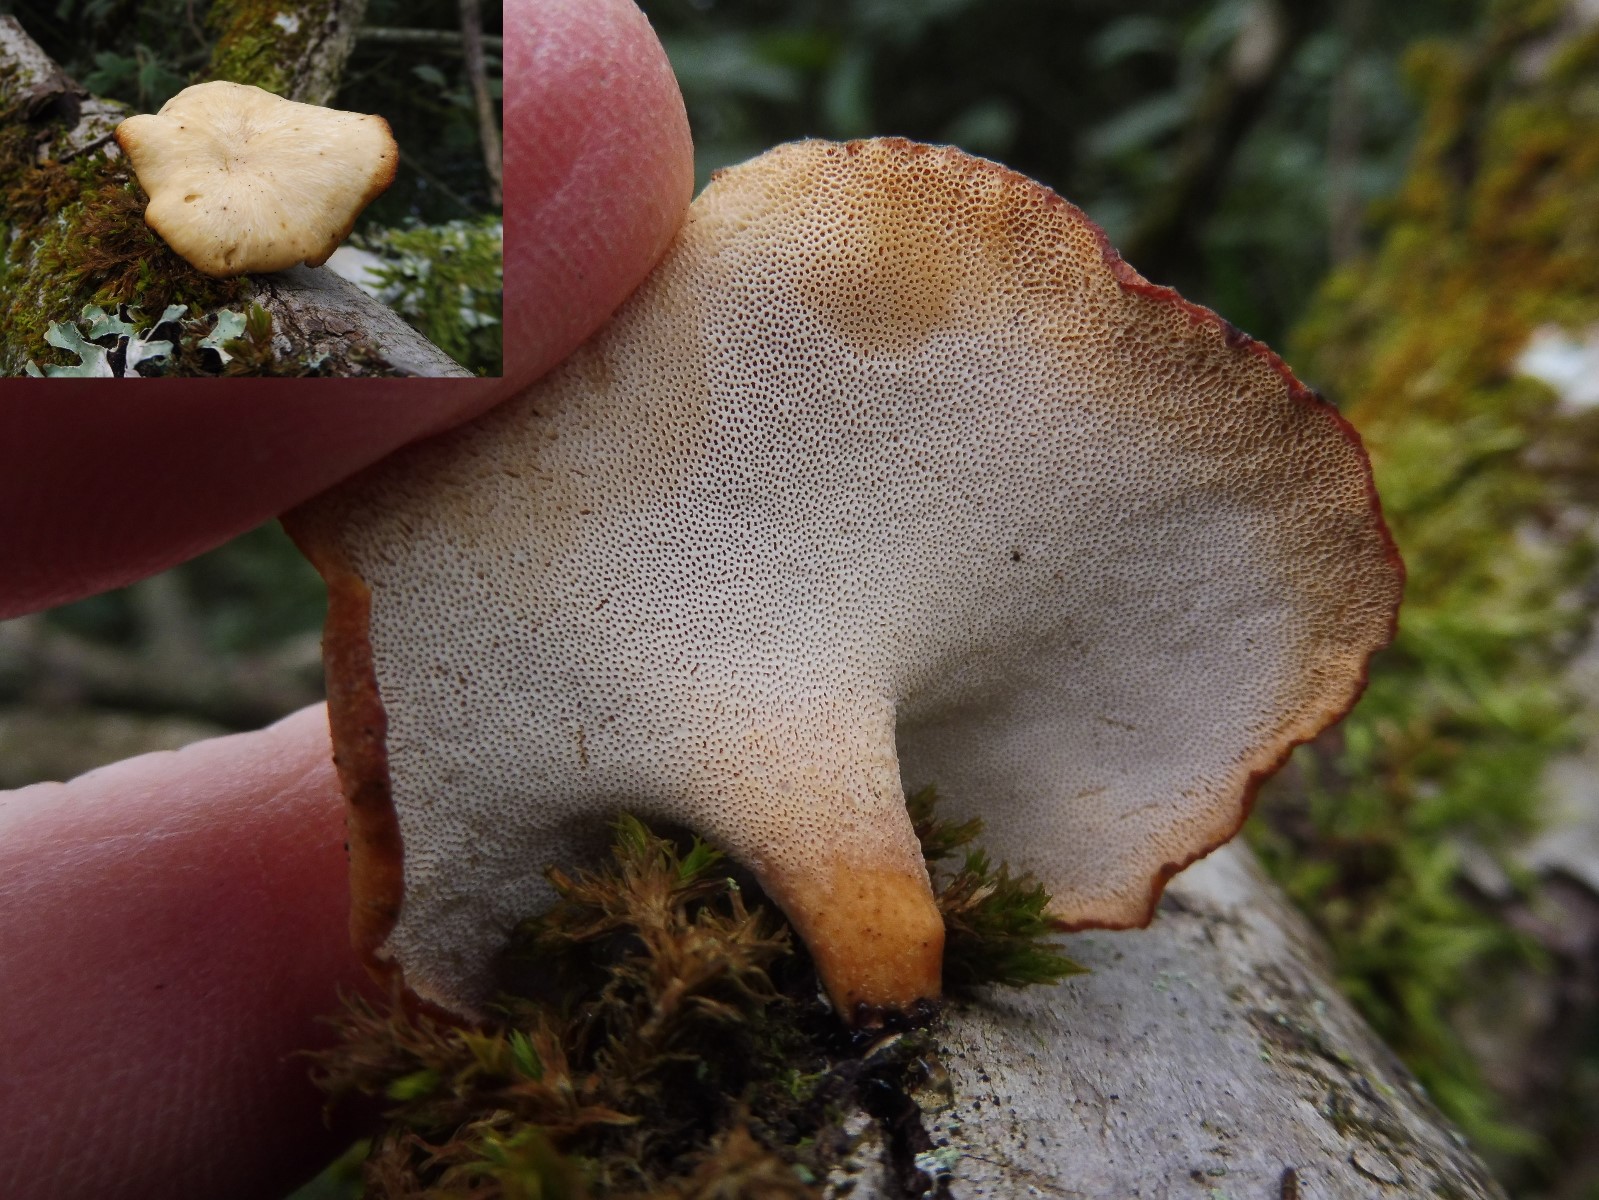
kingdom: Fungi
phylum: Basidiomycota
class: Agaricomycetes
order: Polyporales
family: Polyporaceae
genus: Cerioporus
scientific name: Cerioporus varius
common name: foranderlig stilkporesvamp
